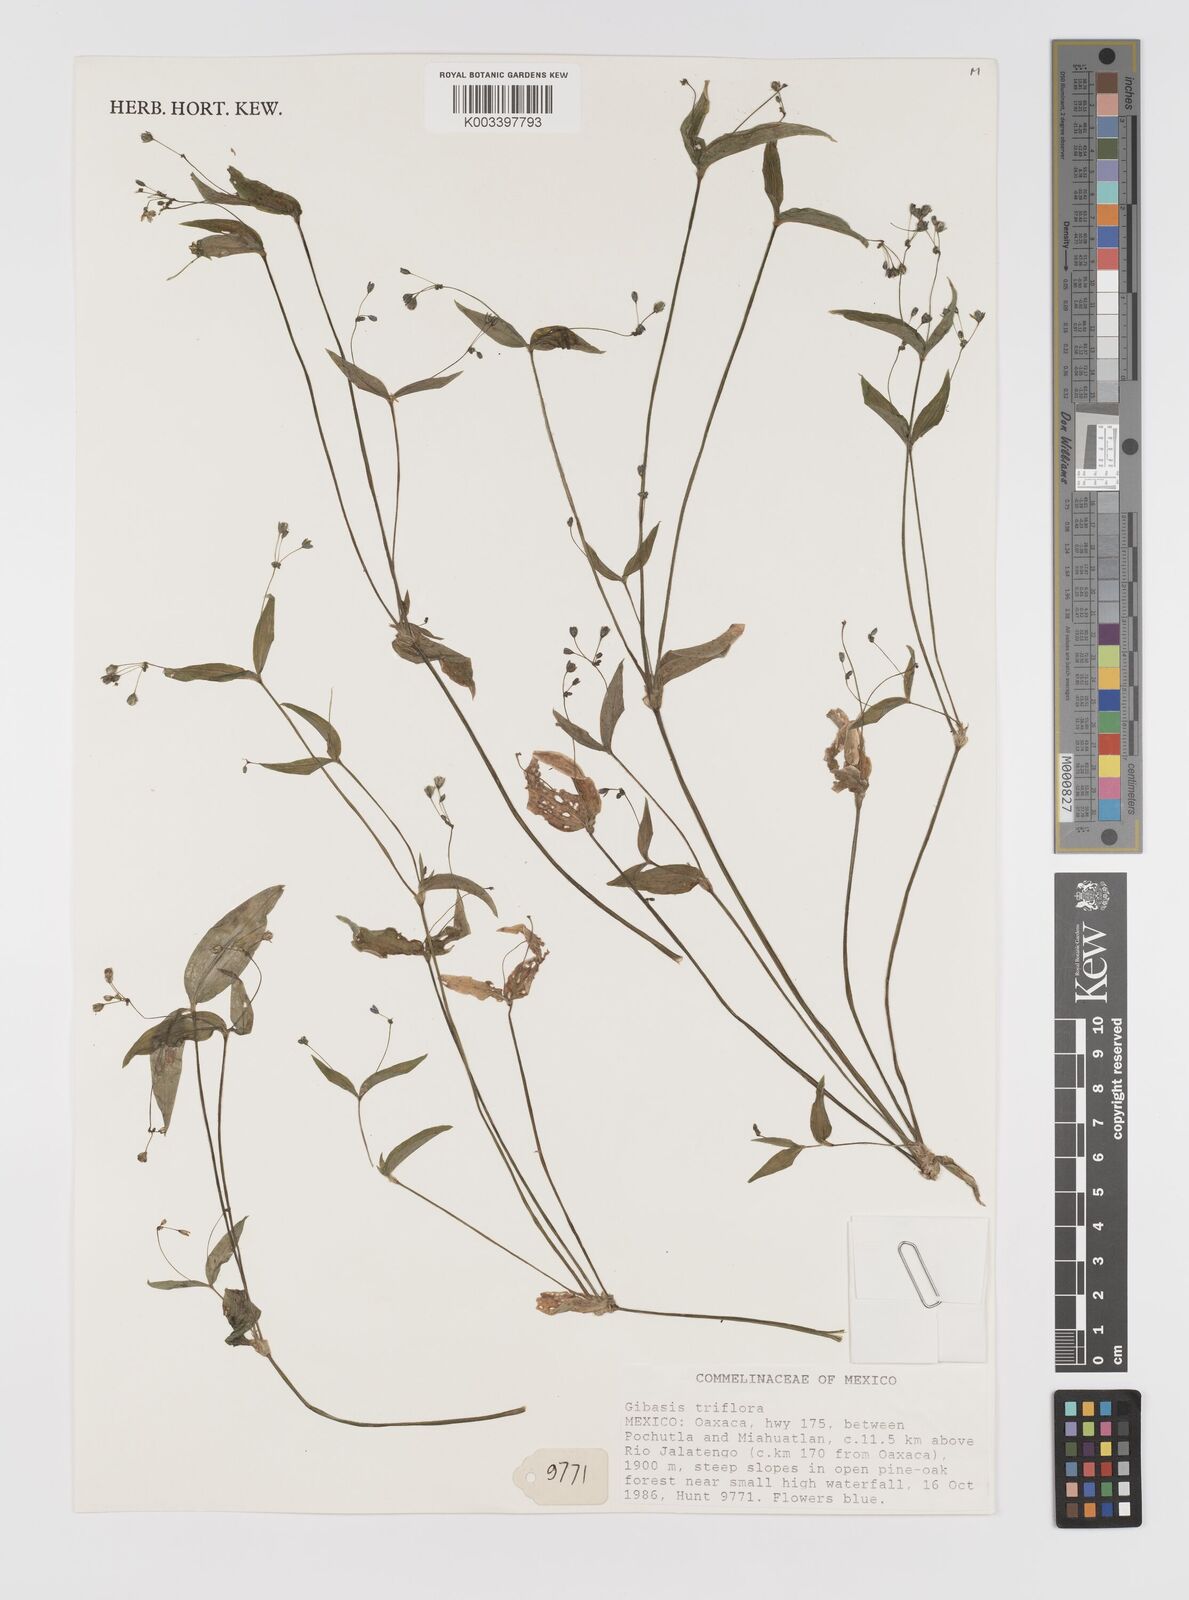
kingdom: Plantae
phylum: Tracheophyta
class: Liliopsida
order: Commelinales
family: Commelinaceae
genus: Gibasis
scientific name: Gibasis triflora
